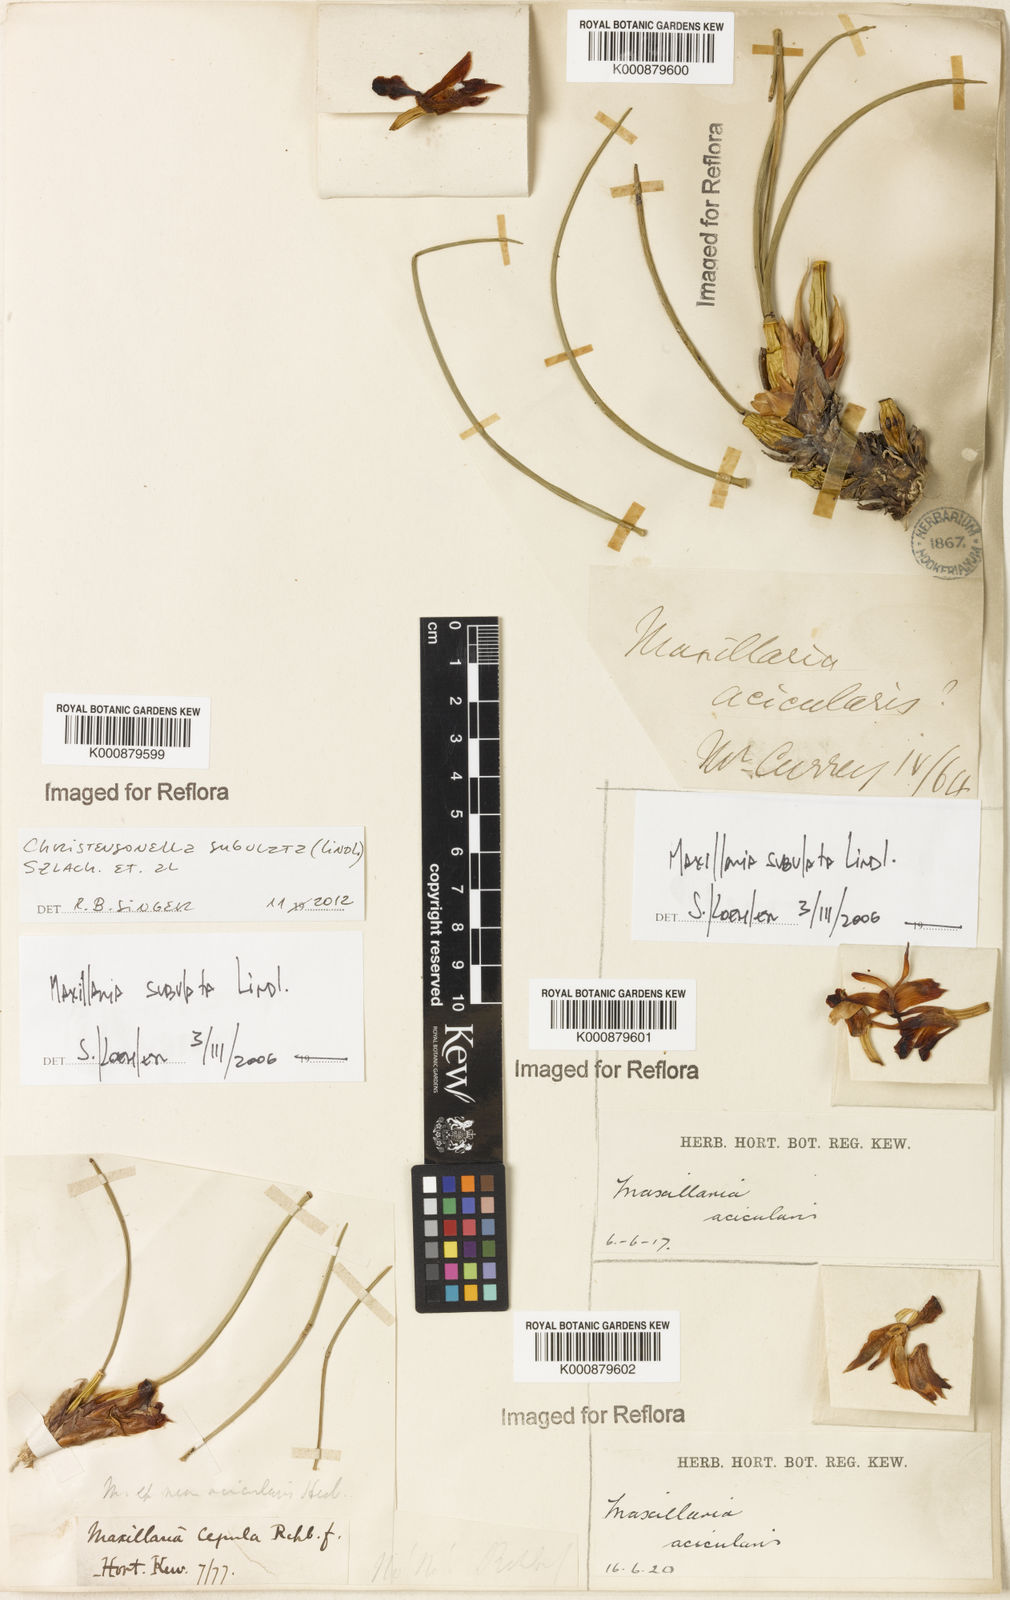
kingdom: Plantae
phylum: Tracheophyta
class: Liliopsida
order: Asparagales
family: Orchidaceae
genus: Maxillaria
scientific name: Maxillaria subulata
